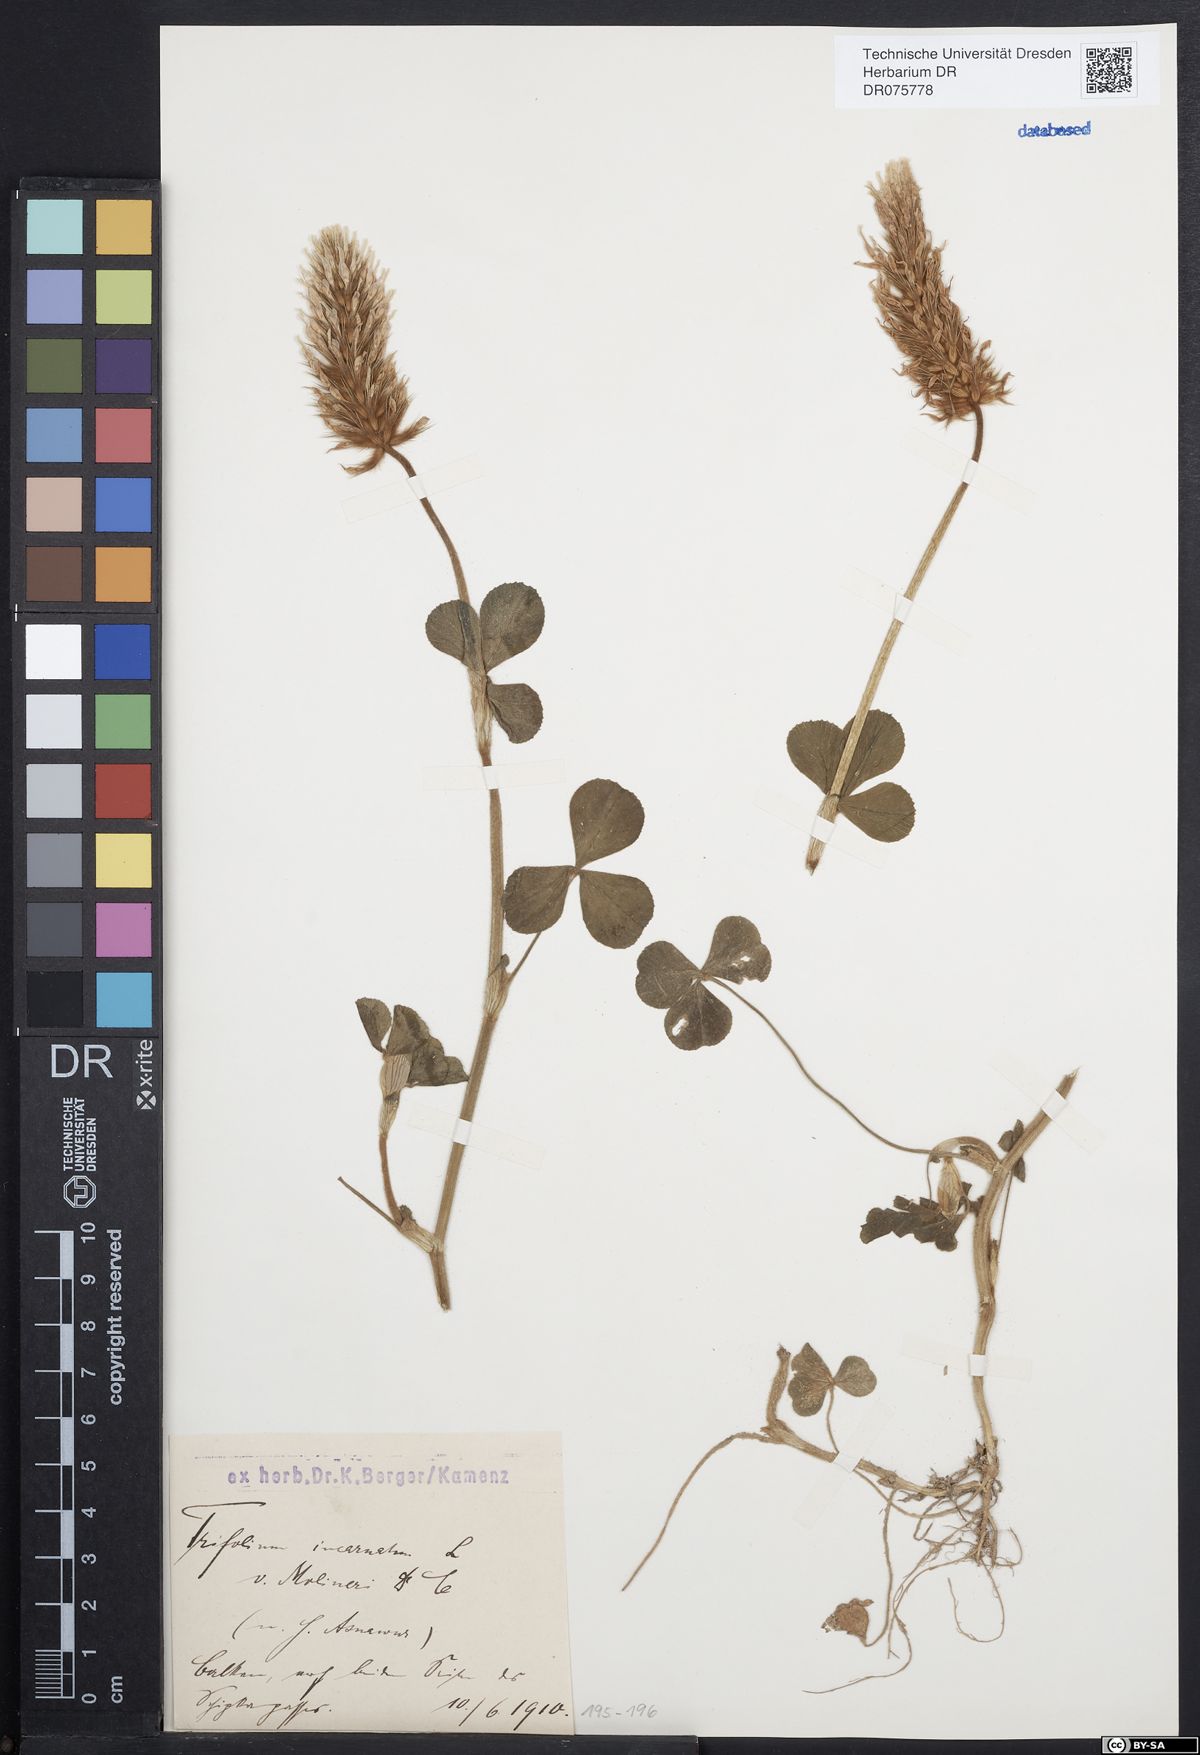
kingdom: Plantae
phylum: Tracheophyta
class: Magnoliopsida
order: Fabales
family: Fabaceae
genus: Trifolium
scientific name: Trifolium incarnatum
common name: Crimson clover
